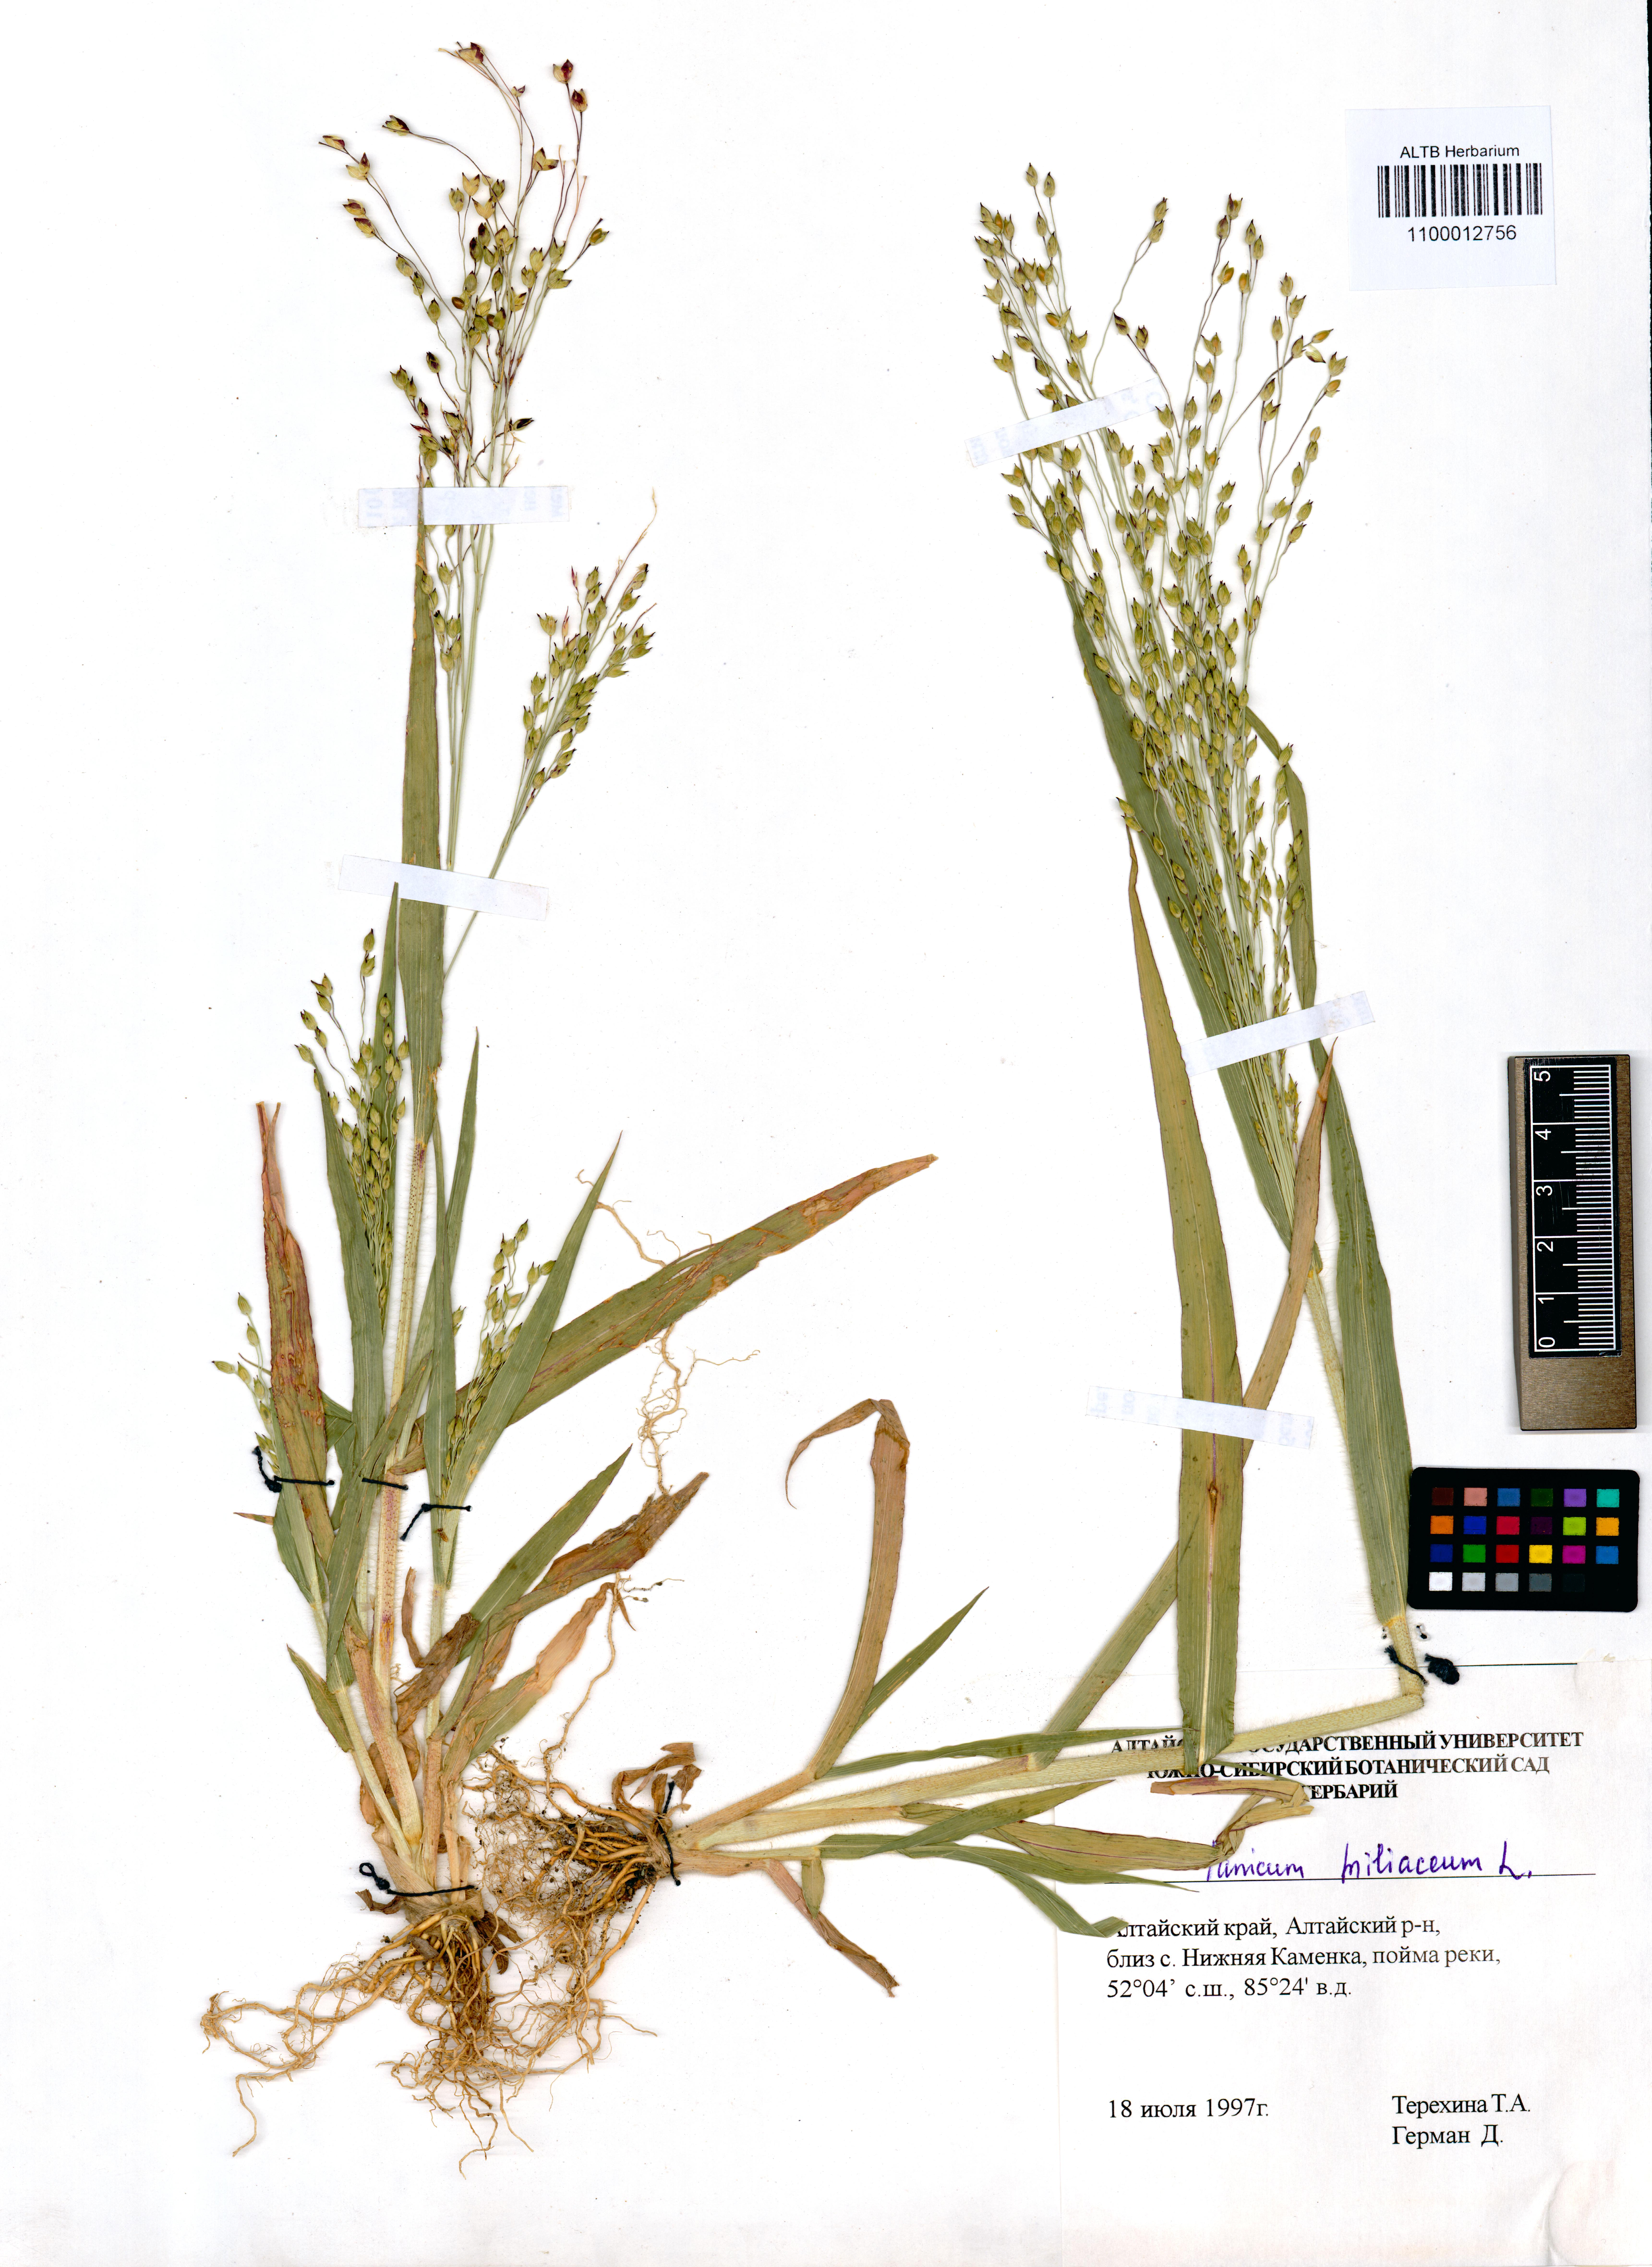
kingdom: Plantae
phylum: Tracheophyta
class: Liliopsida
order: Poales
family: Poaceae
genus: Panicum
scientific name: Panicum miliaceum
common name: Common millet
